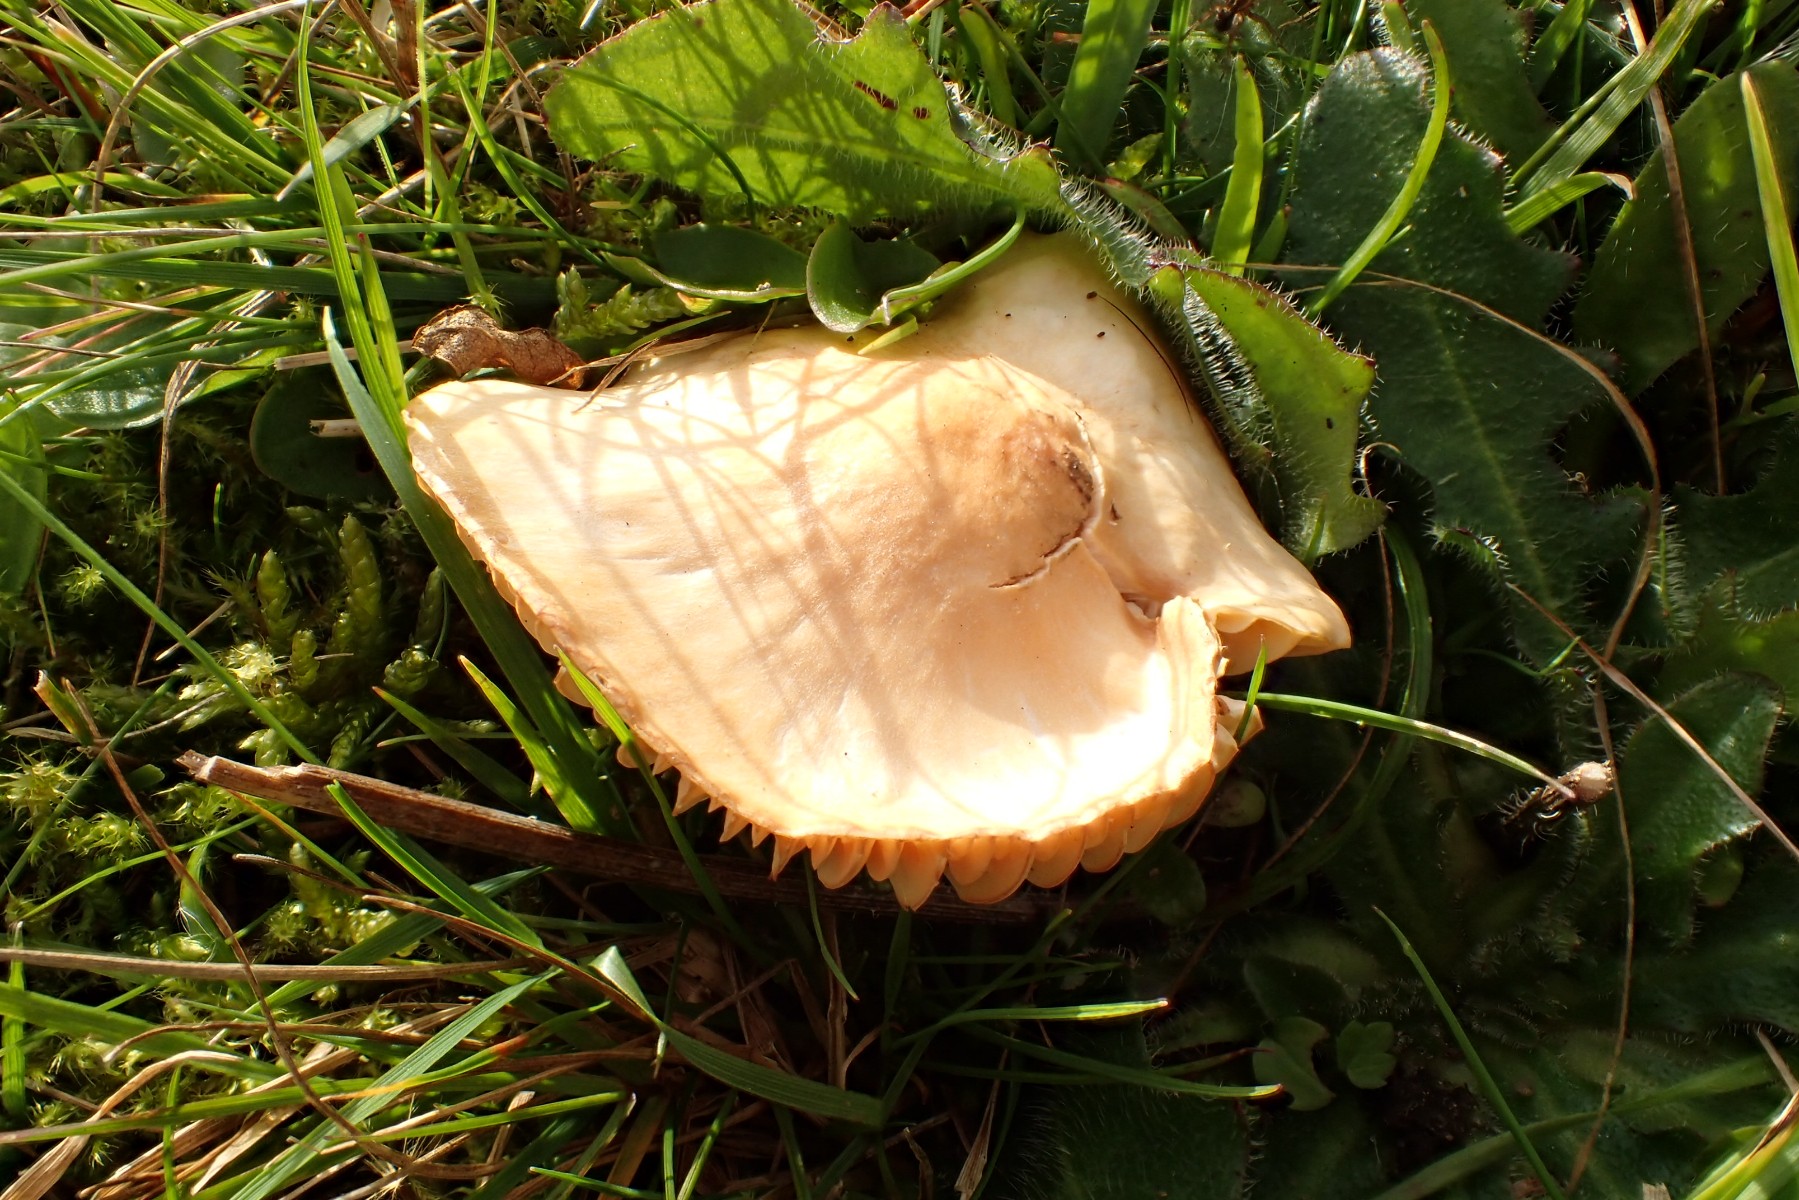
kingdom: Fungi
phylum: Basidiomycota
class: Agaricomycetes
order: Agaricales
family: Hygrophoraceae
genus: Cuphophyllus
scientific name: Cuphophyllus pratensis
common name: eng-vokshat
